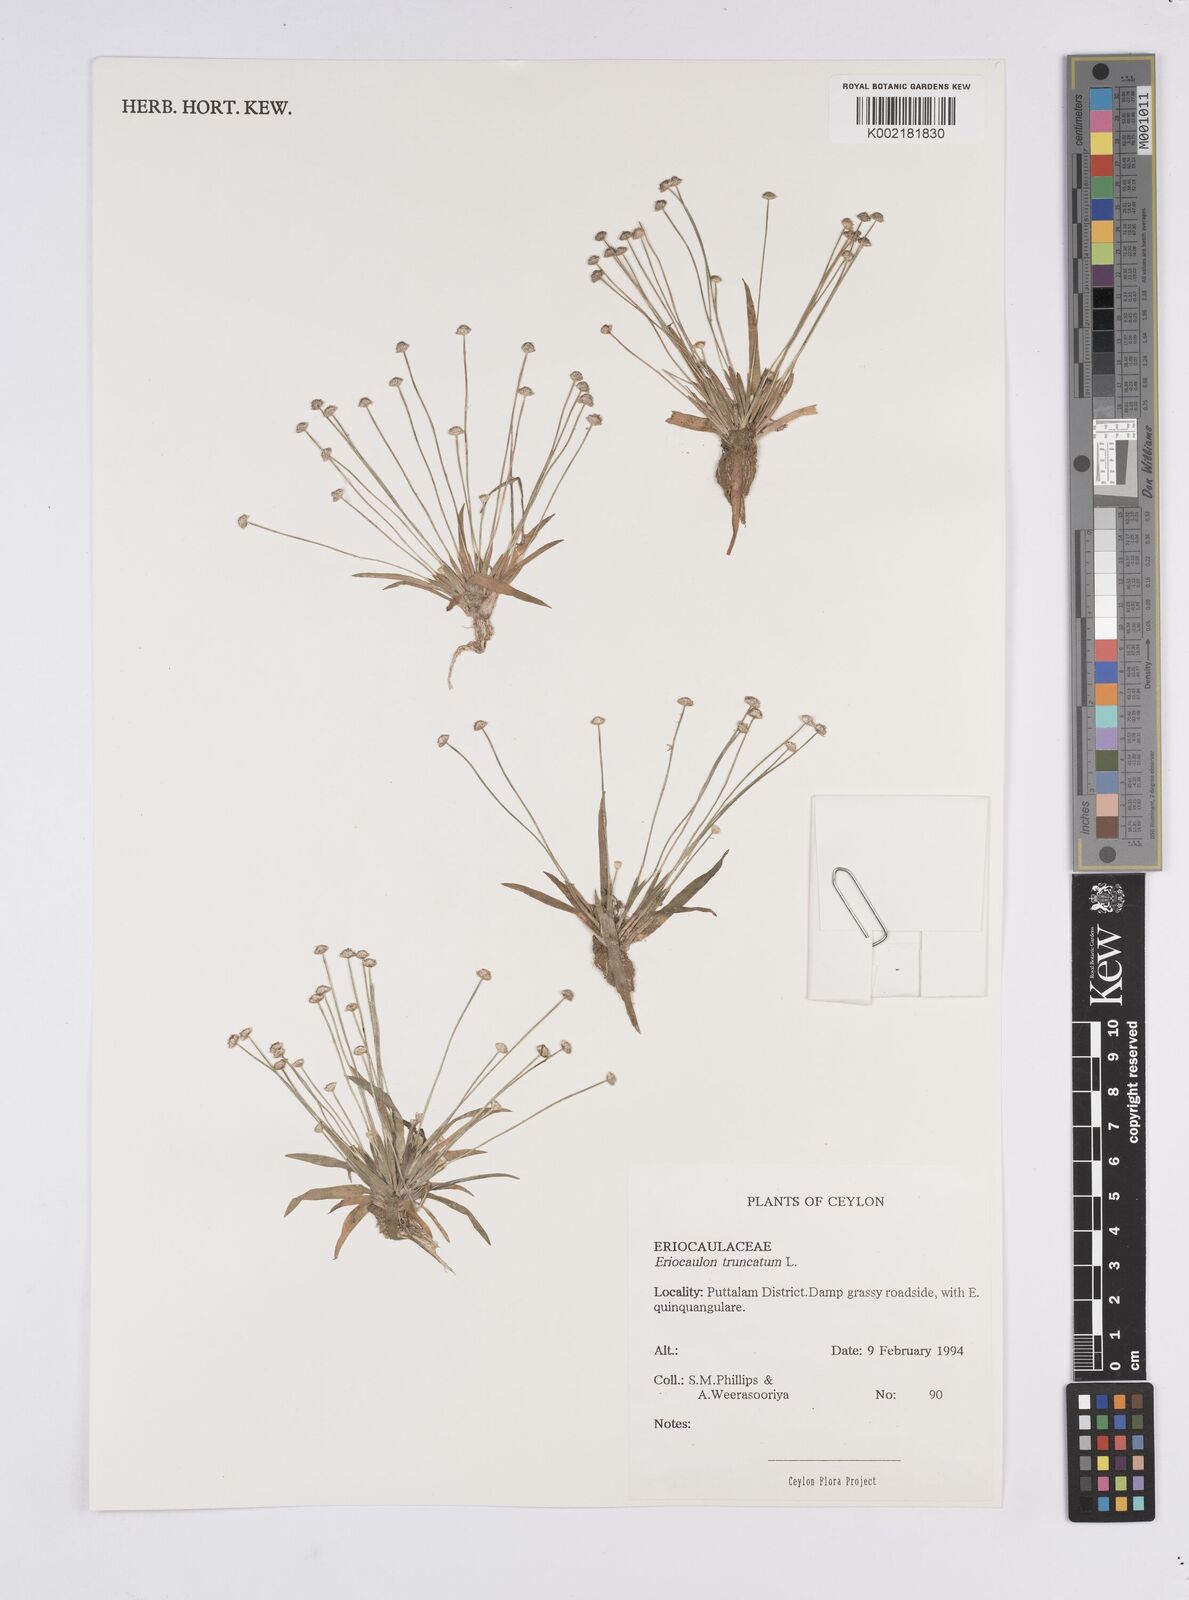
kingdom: Plantae
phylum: Tracheophyta
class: Liliopsida
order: Poales
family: Eriocaulaceae
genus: Eriocaulon
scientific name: Eriocaulon truncatum
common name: Short pipe-wort
